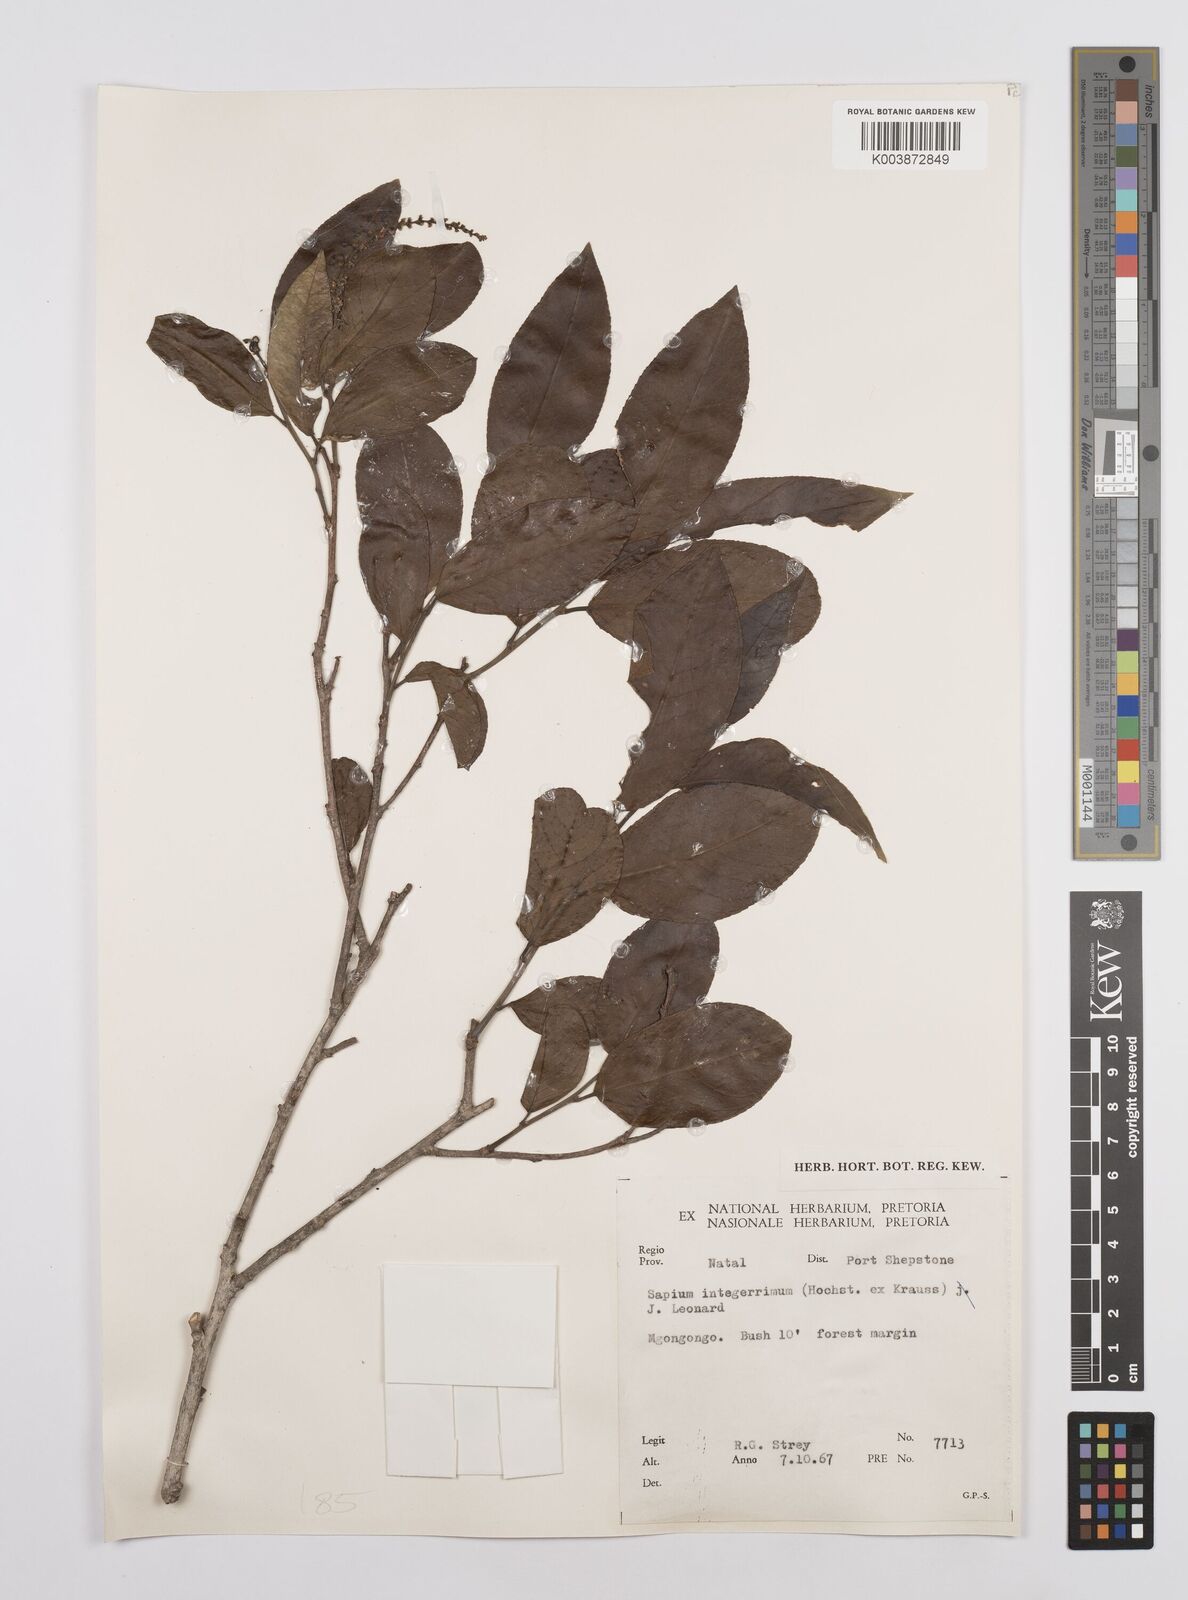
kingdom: Plantae
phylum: Tracheophyta
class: Magnoliopsida
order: Malpighiales
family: Euphorbiaceae
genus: Sclerocroton
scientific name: Sclerocroton integerrimus
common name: Duiker berry
